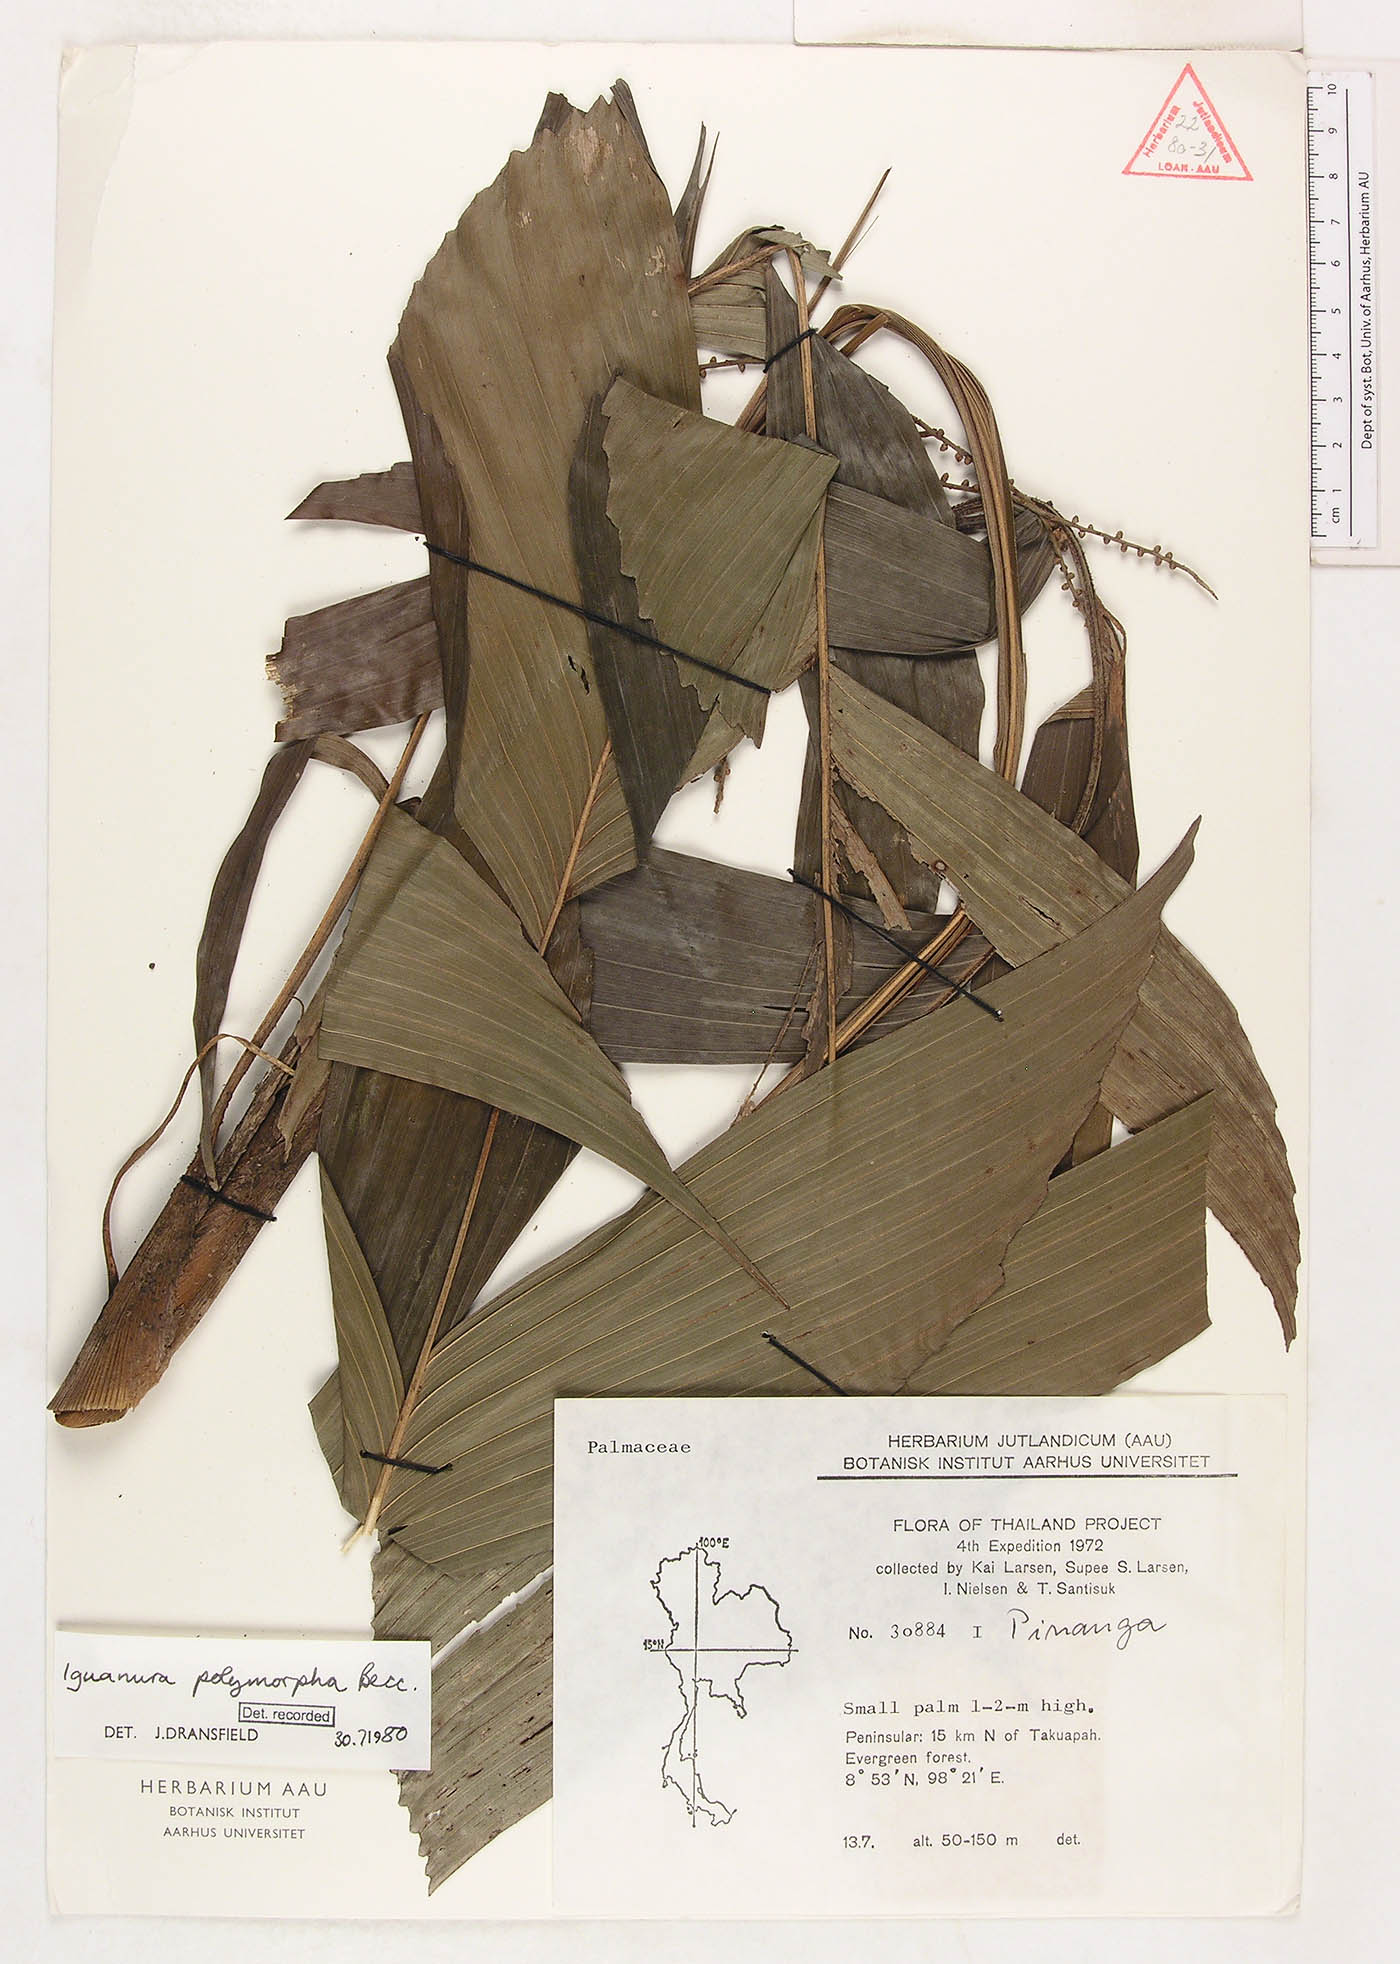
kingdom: Plantae
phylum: Tracheophyta
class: Liliopsida
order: Arecales
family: Arecaceae
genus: Iguanura
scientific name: Iguanura polymorpha
